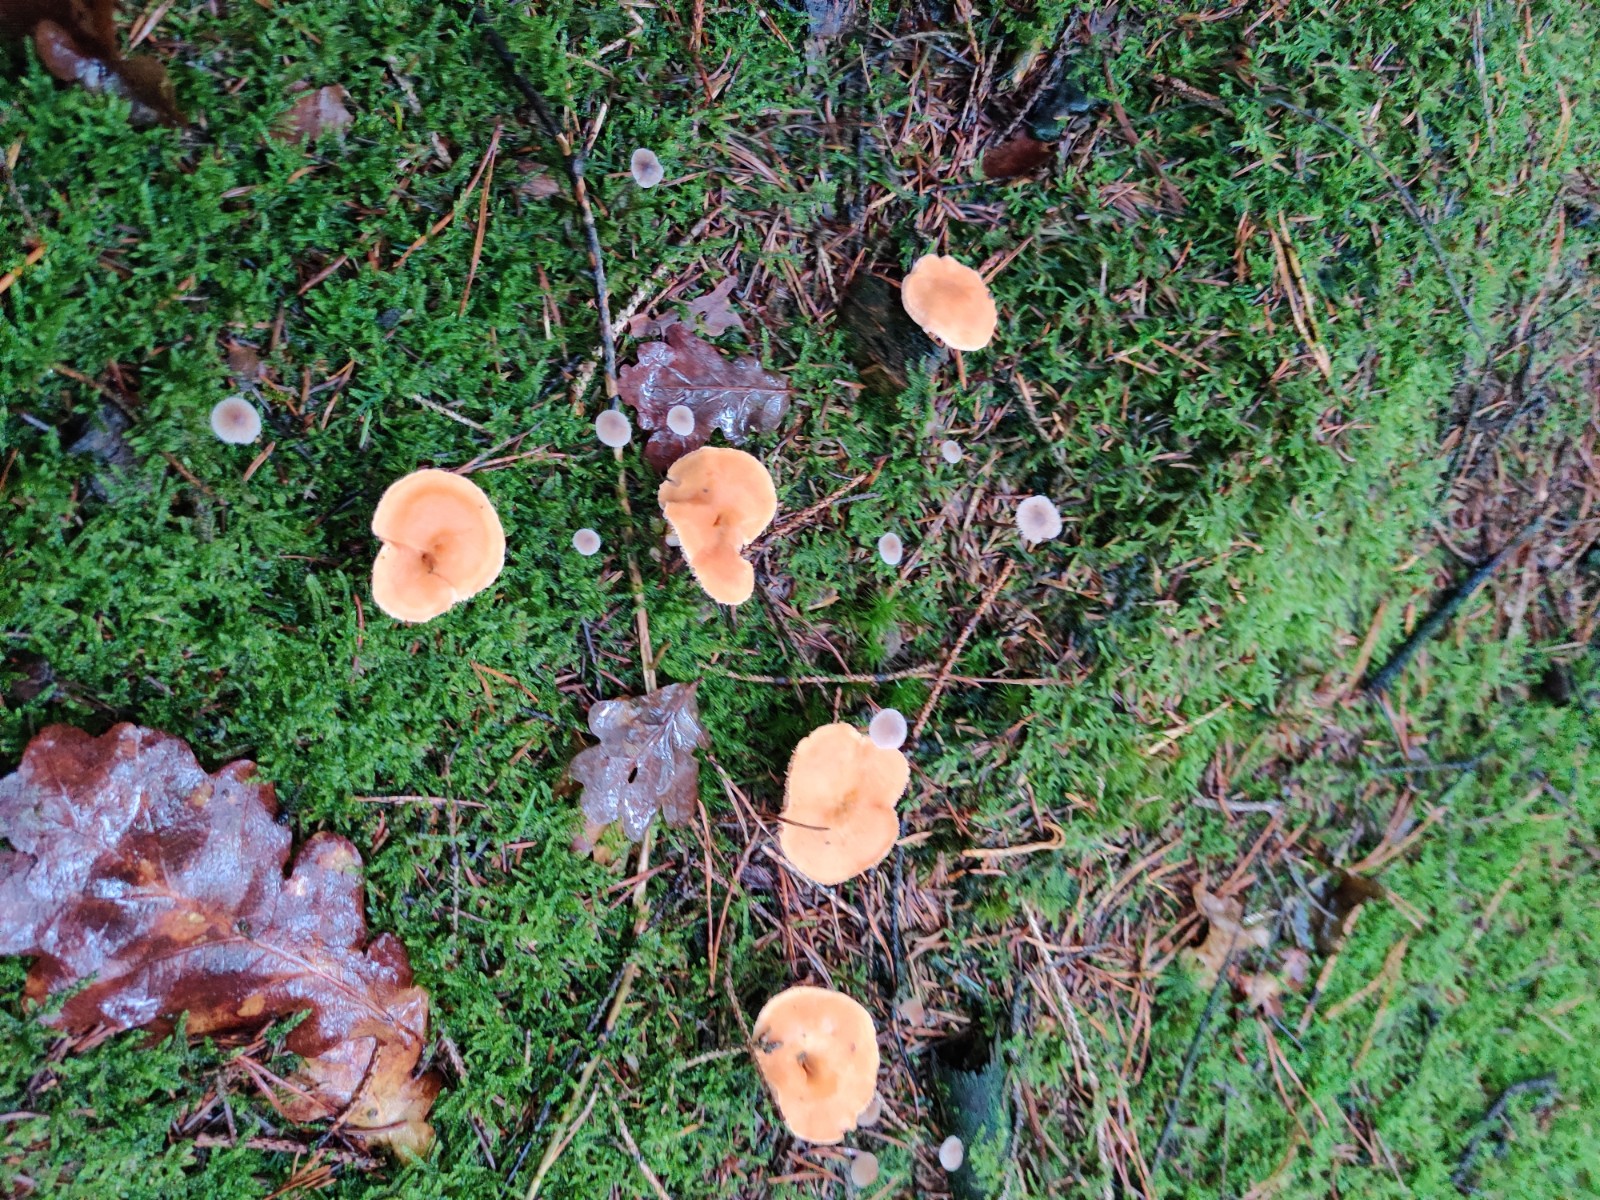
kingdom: Fungi
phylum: Basidiomycota
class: Agaricomycetes
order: Cantharellales
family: Hydnaceae
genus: Hydnum
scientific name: Hydnum
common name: pigsvamp
